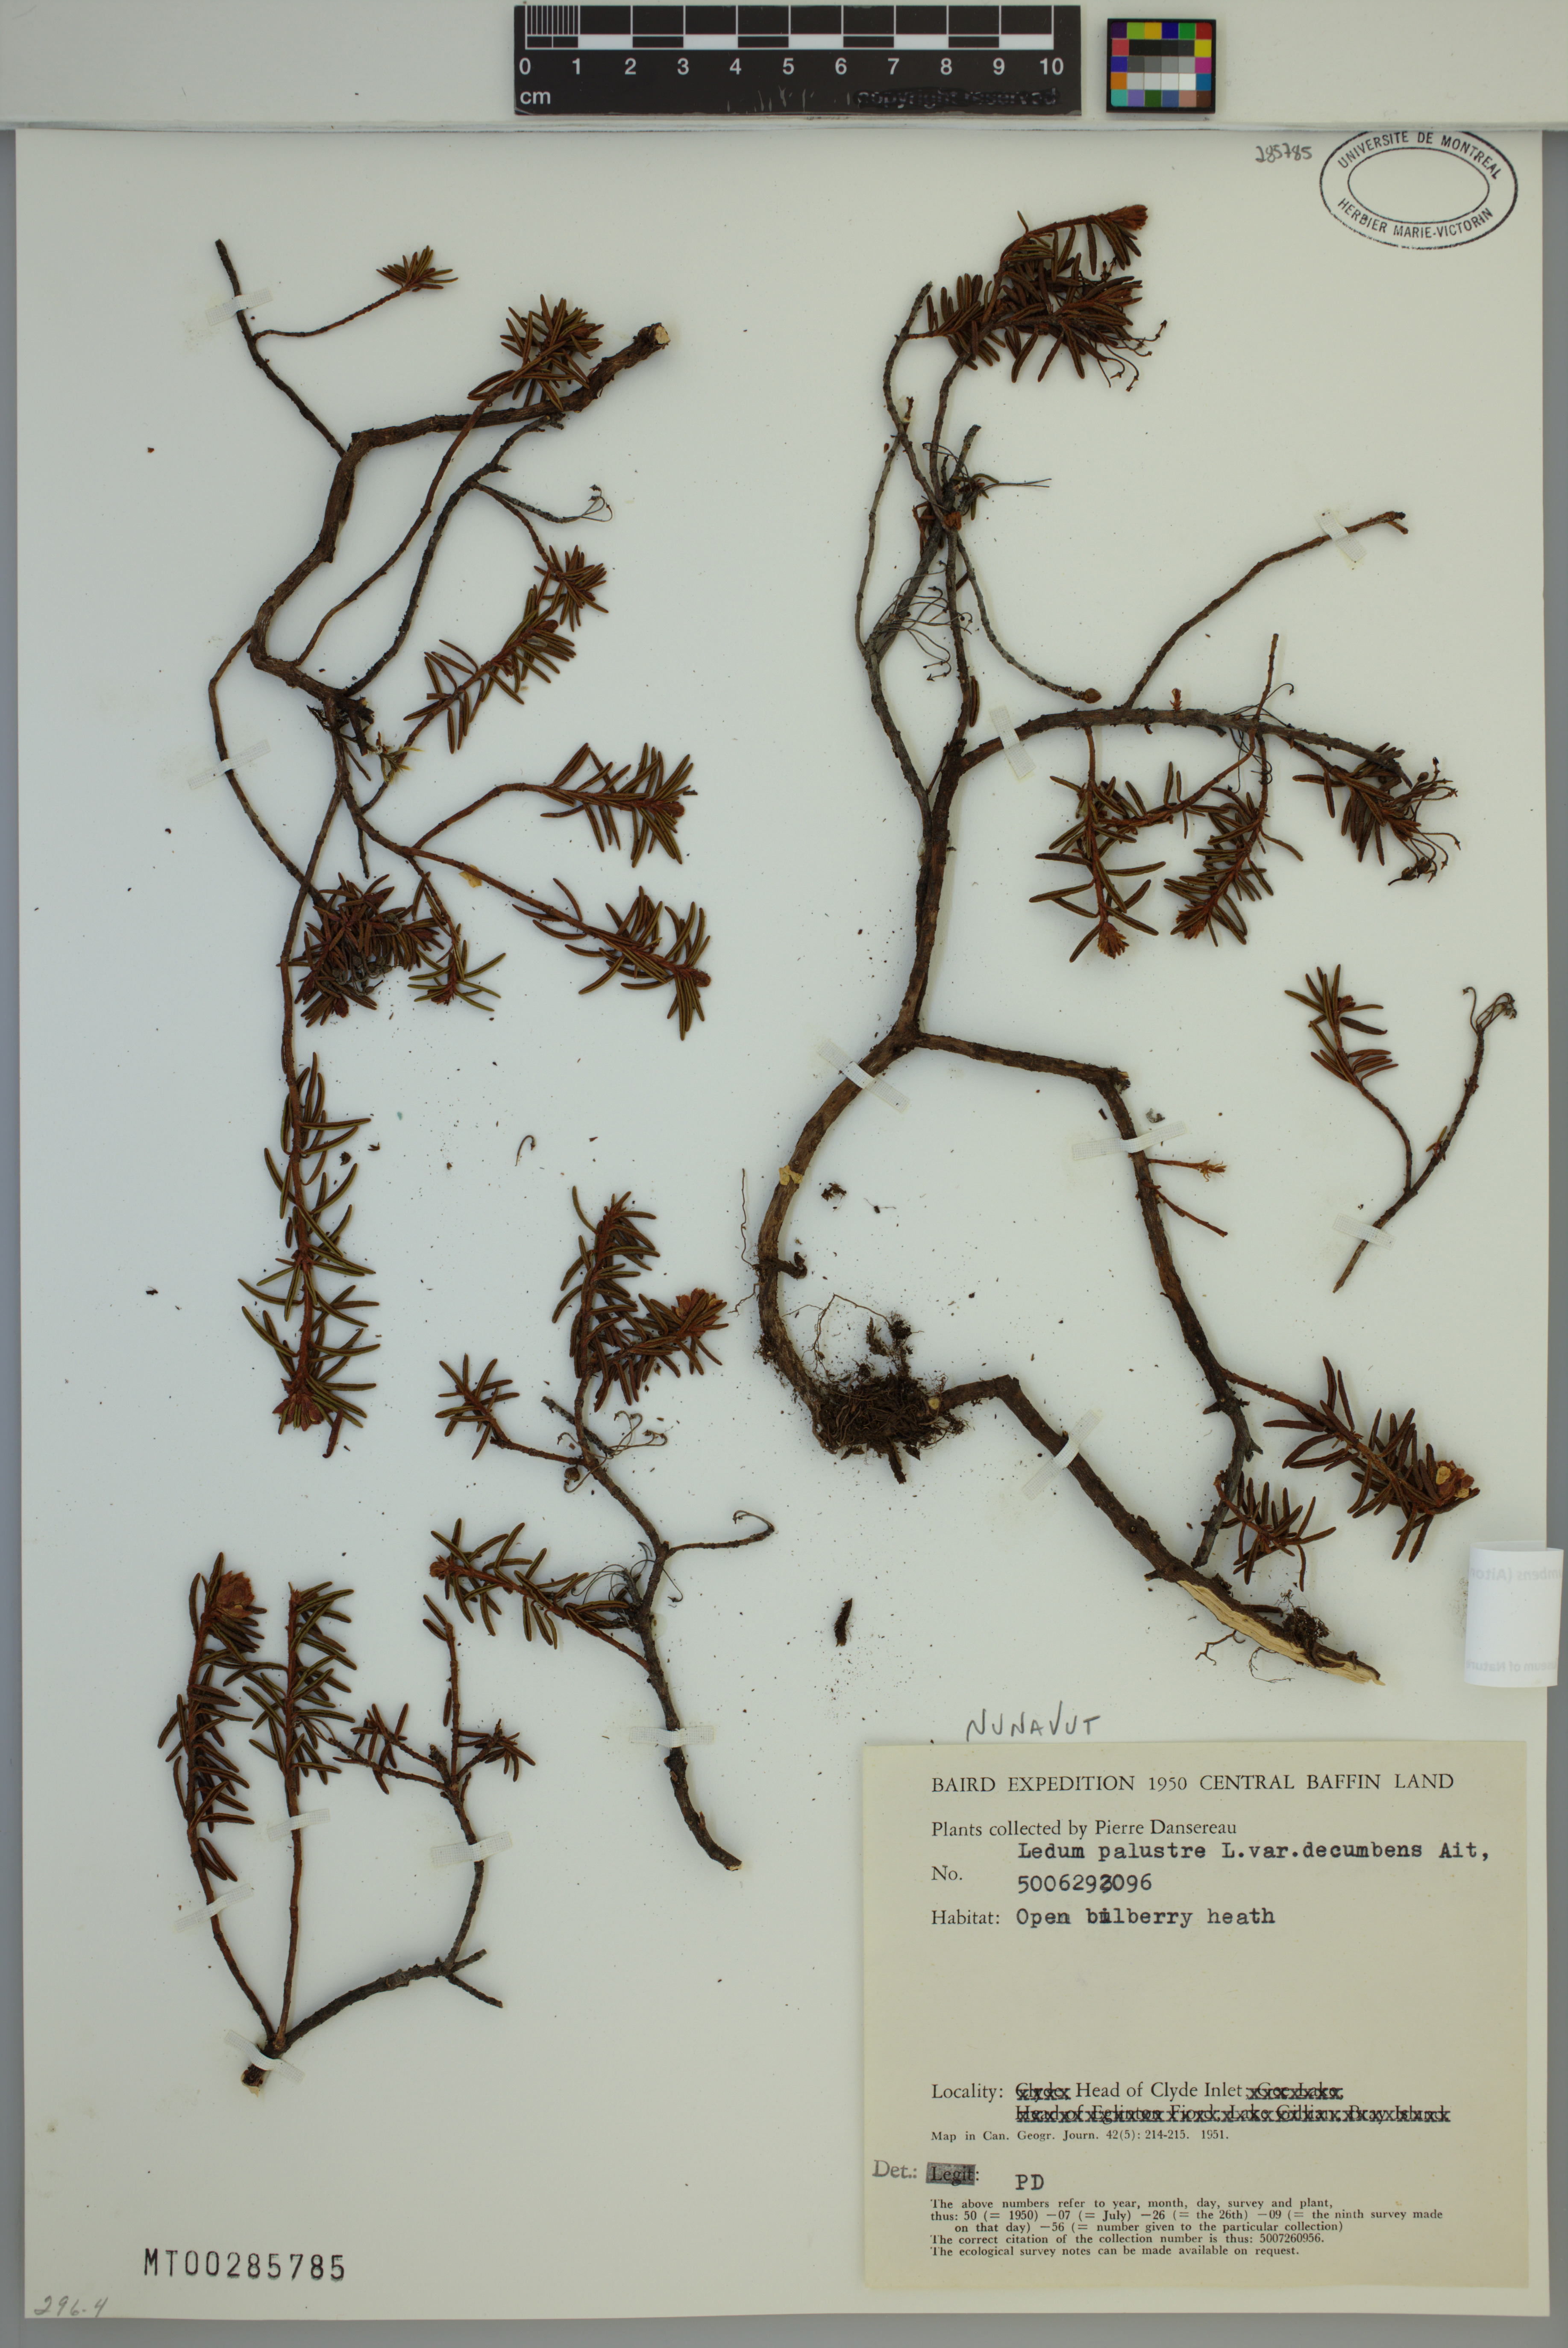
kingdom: Plantae
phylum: Tracheophyta
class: Magnoliopsida
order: Ericales
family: Ericaceae
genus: Rhododendron
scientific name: Rhododendron tomentosum
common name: Marsh labrador tea
